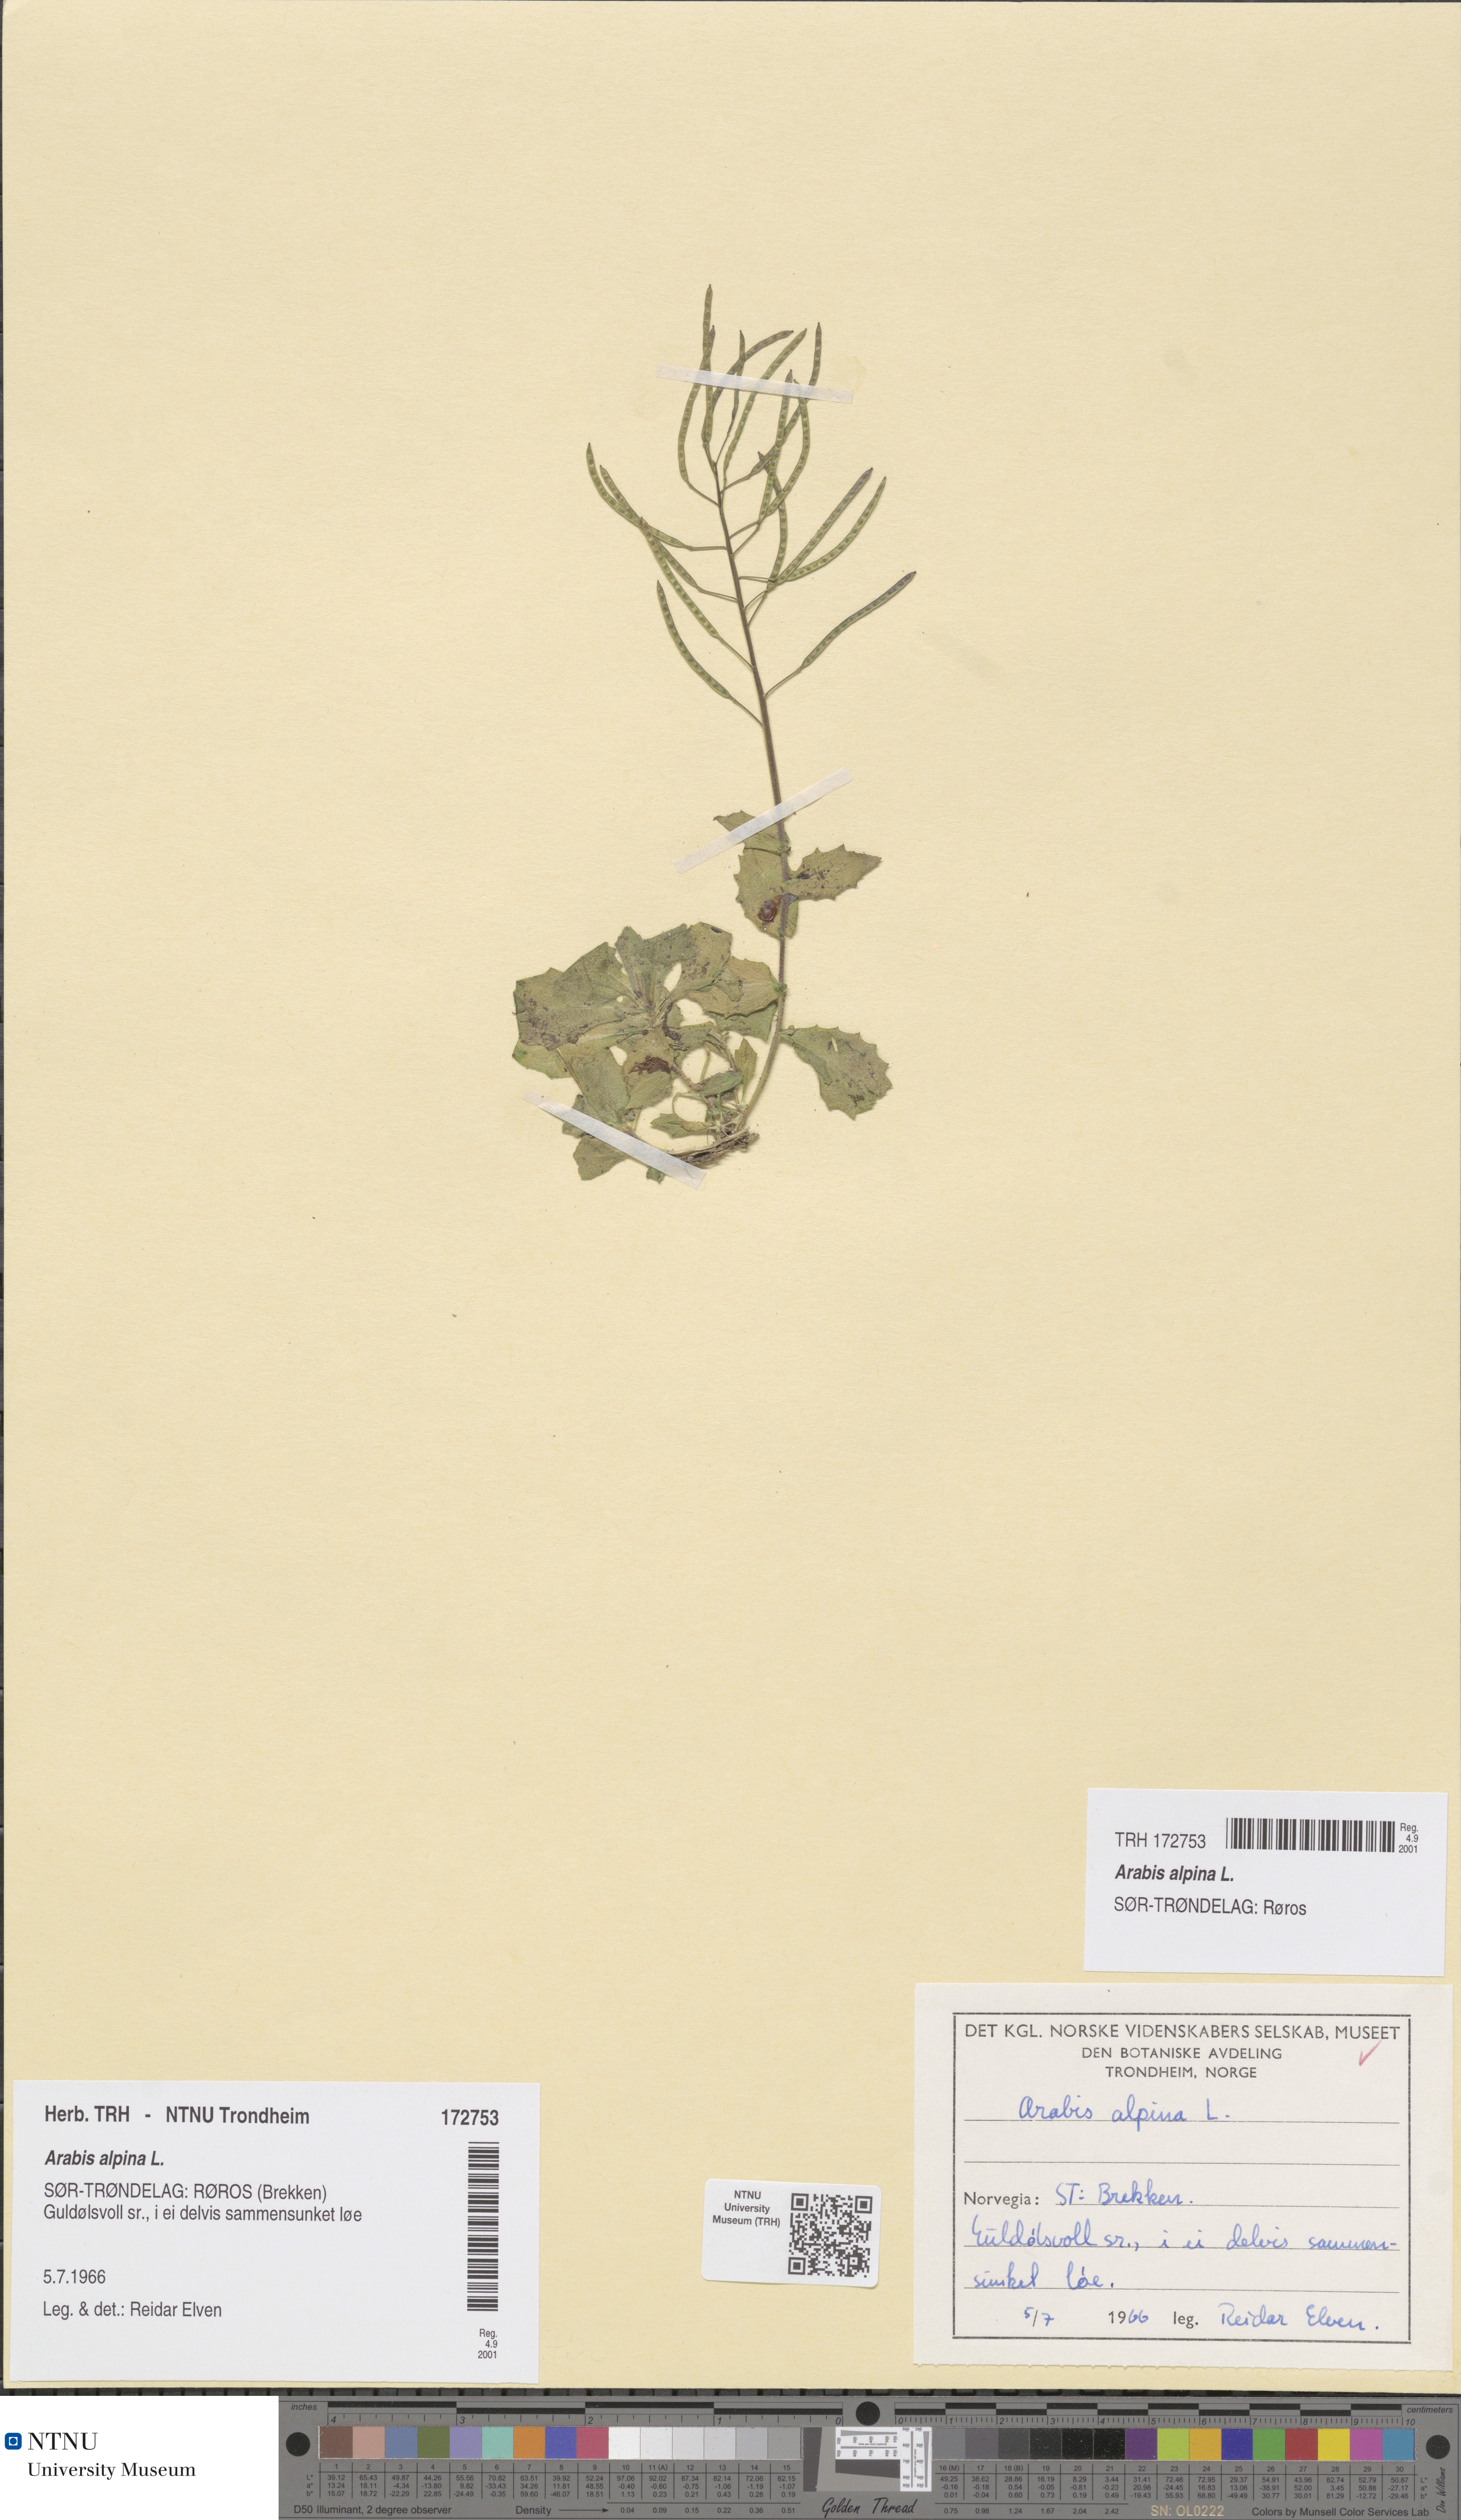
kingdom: Plantae
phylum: Tracheophyta
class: Magnoliopsida
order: Brassicales
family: Brassicaceae
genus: Arabis
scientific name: Arabis alpina
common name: Alpine rock-cress
